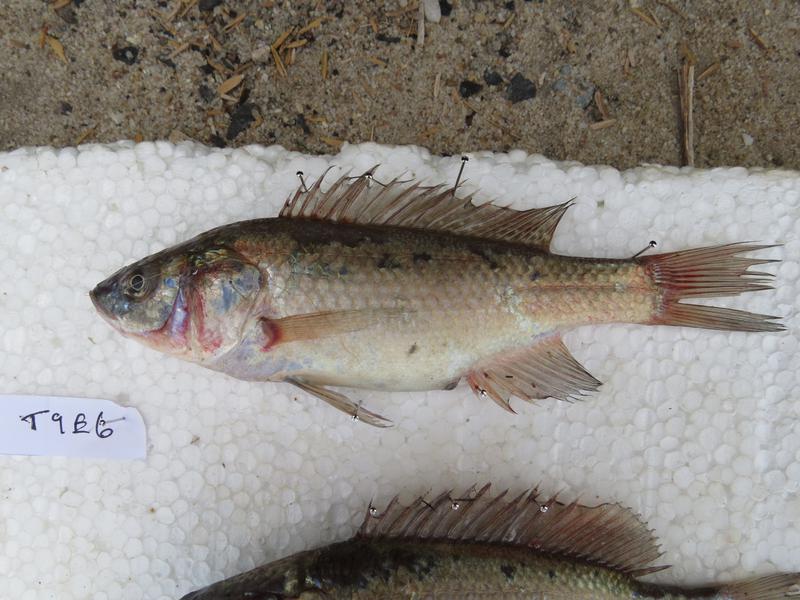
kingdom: Animalia
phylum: Chordata
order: Perciformes
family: Cichlidae
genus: Oreochromis
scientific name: Oreochromis amphimelas
